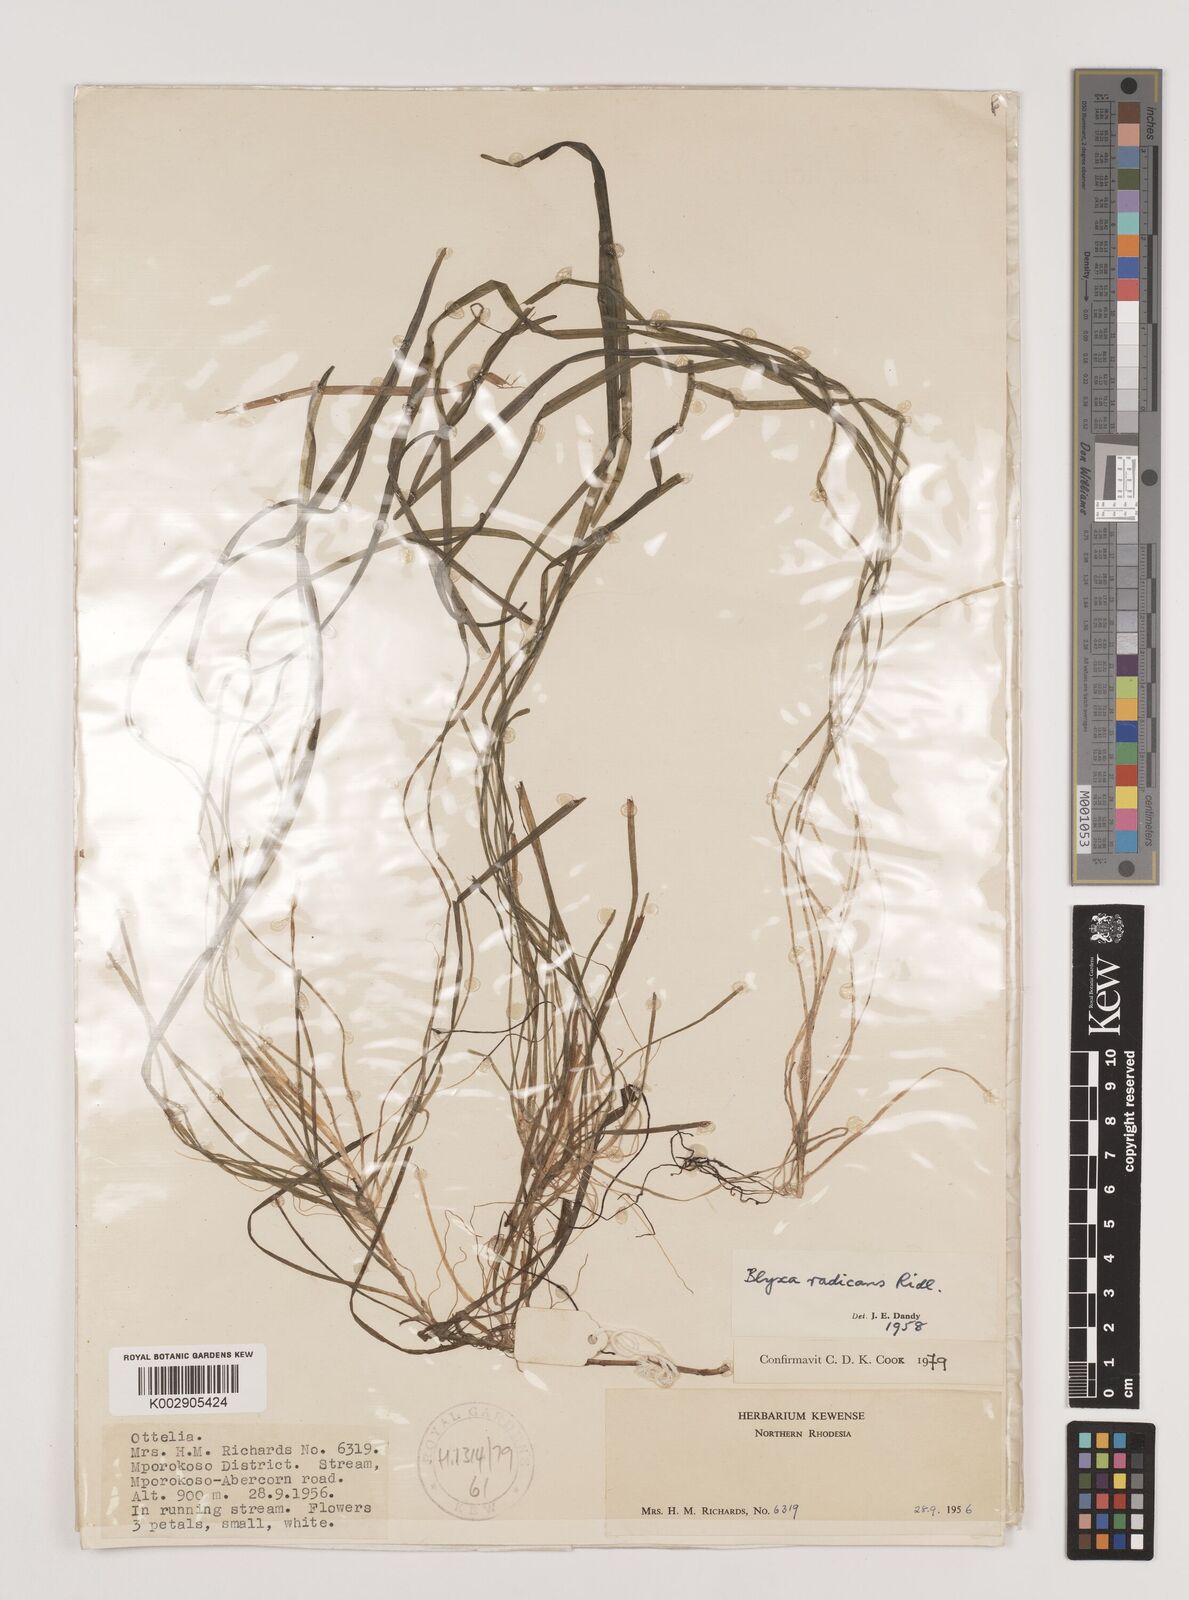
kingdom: Plantae
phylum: Tracheophyta
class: Liliopsida
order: Alismatales
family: Hydrocharitaceae
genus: Blyxa
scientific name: Blyxa radicans
